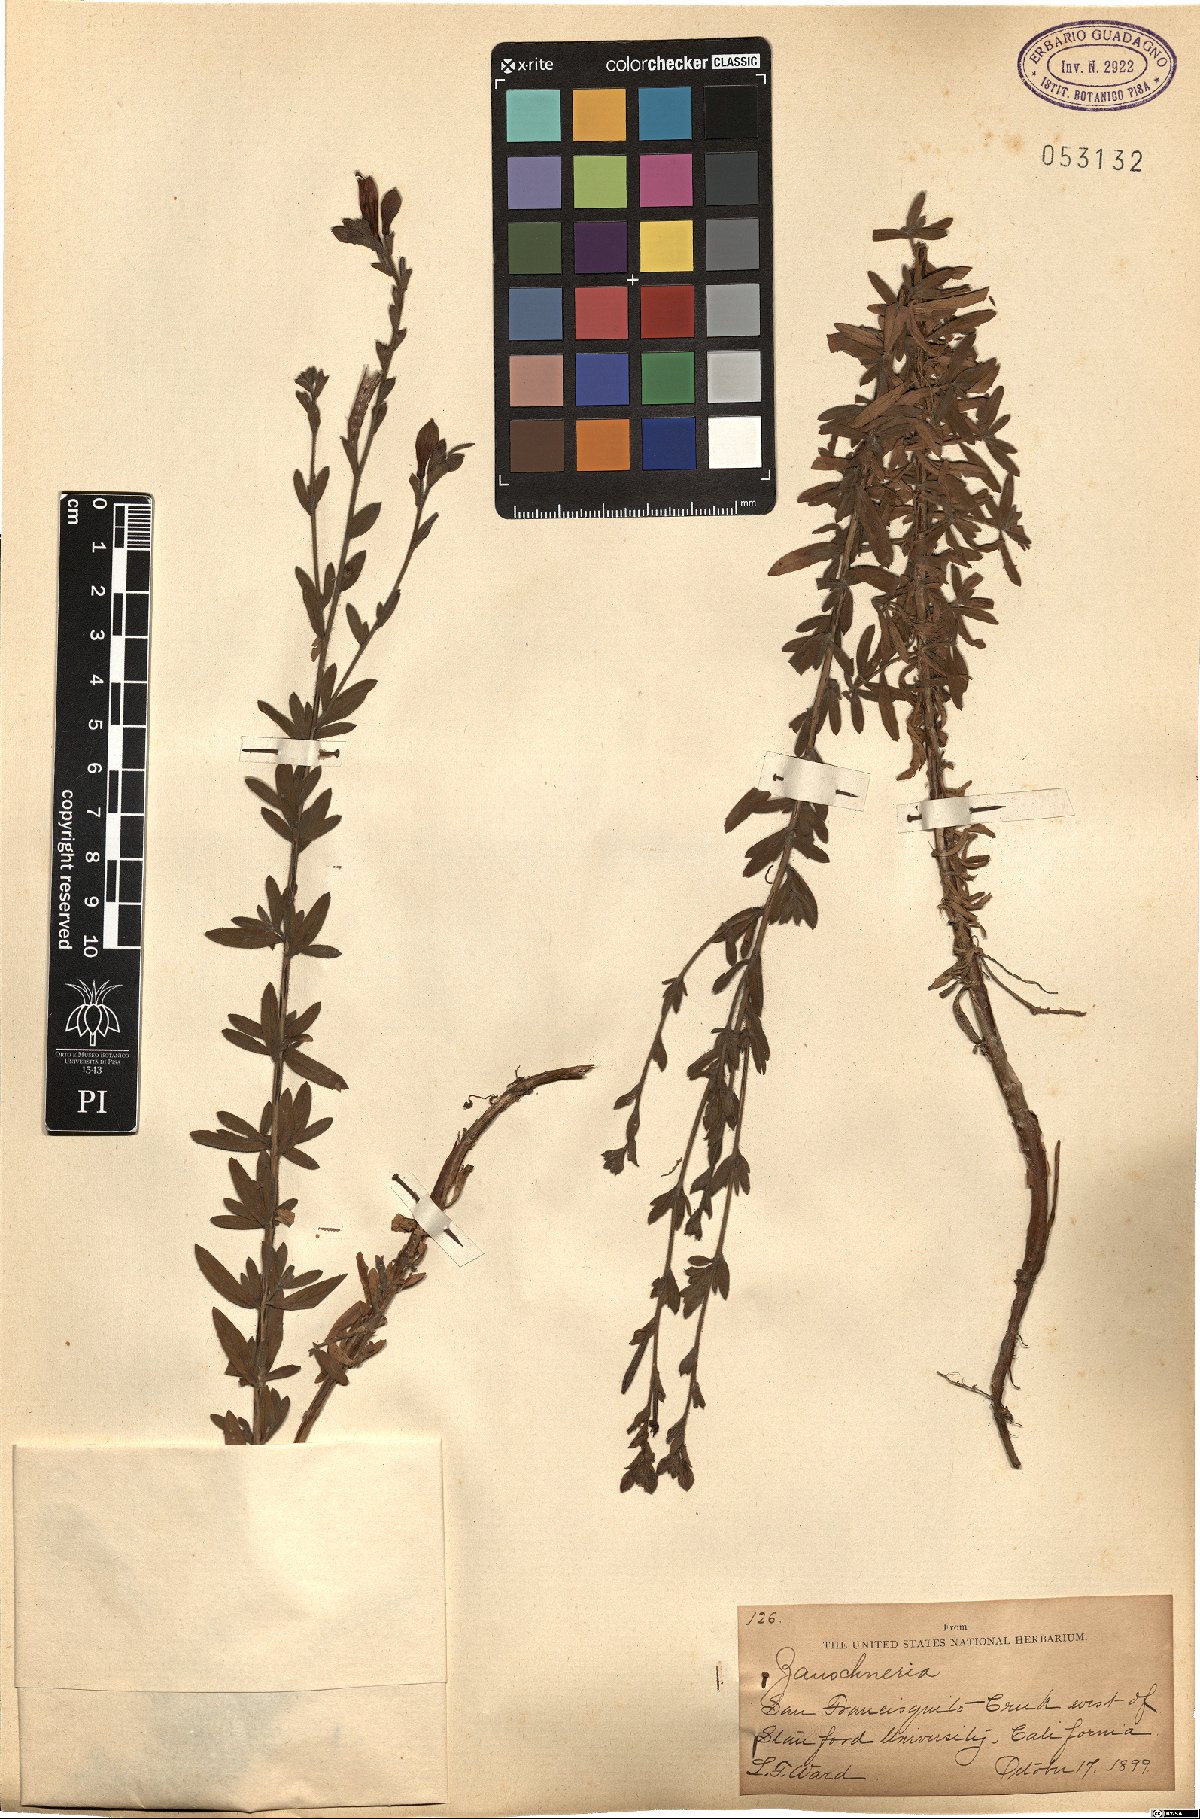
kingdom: Plantae
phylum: Tracheophyta
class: Magnoliopsida
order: Myrtales
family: Onagraceae
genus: Epilobium
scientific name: Epilobium
